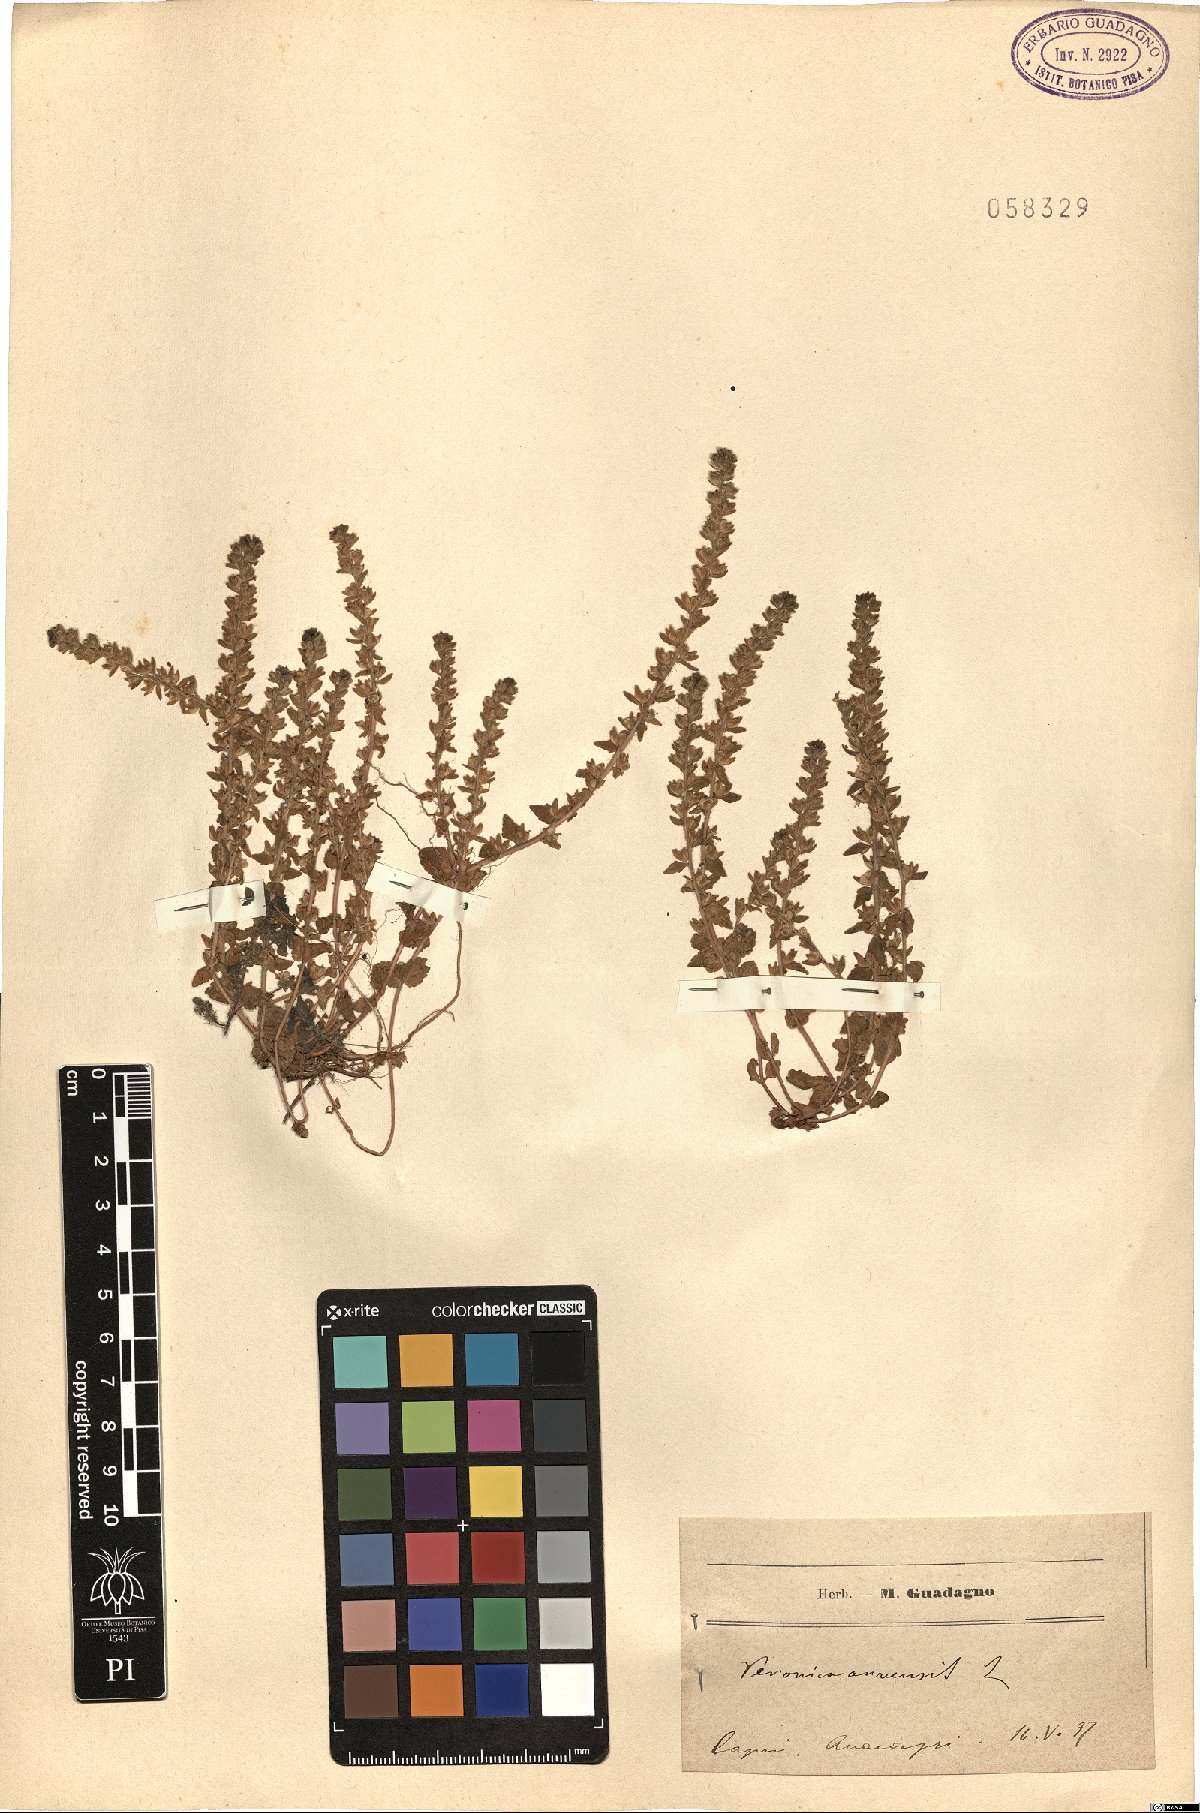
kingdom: Plantae
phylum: Tracheophyta
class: Magnoliopsida
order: Lamiales
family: Plantaginaceae
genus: Veronica
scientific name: Veronica arvensis
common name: Corn speedwell
